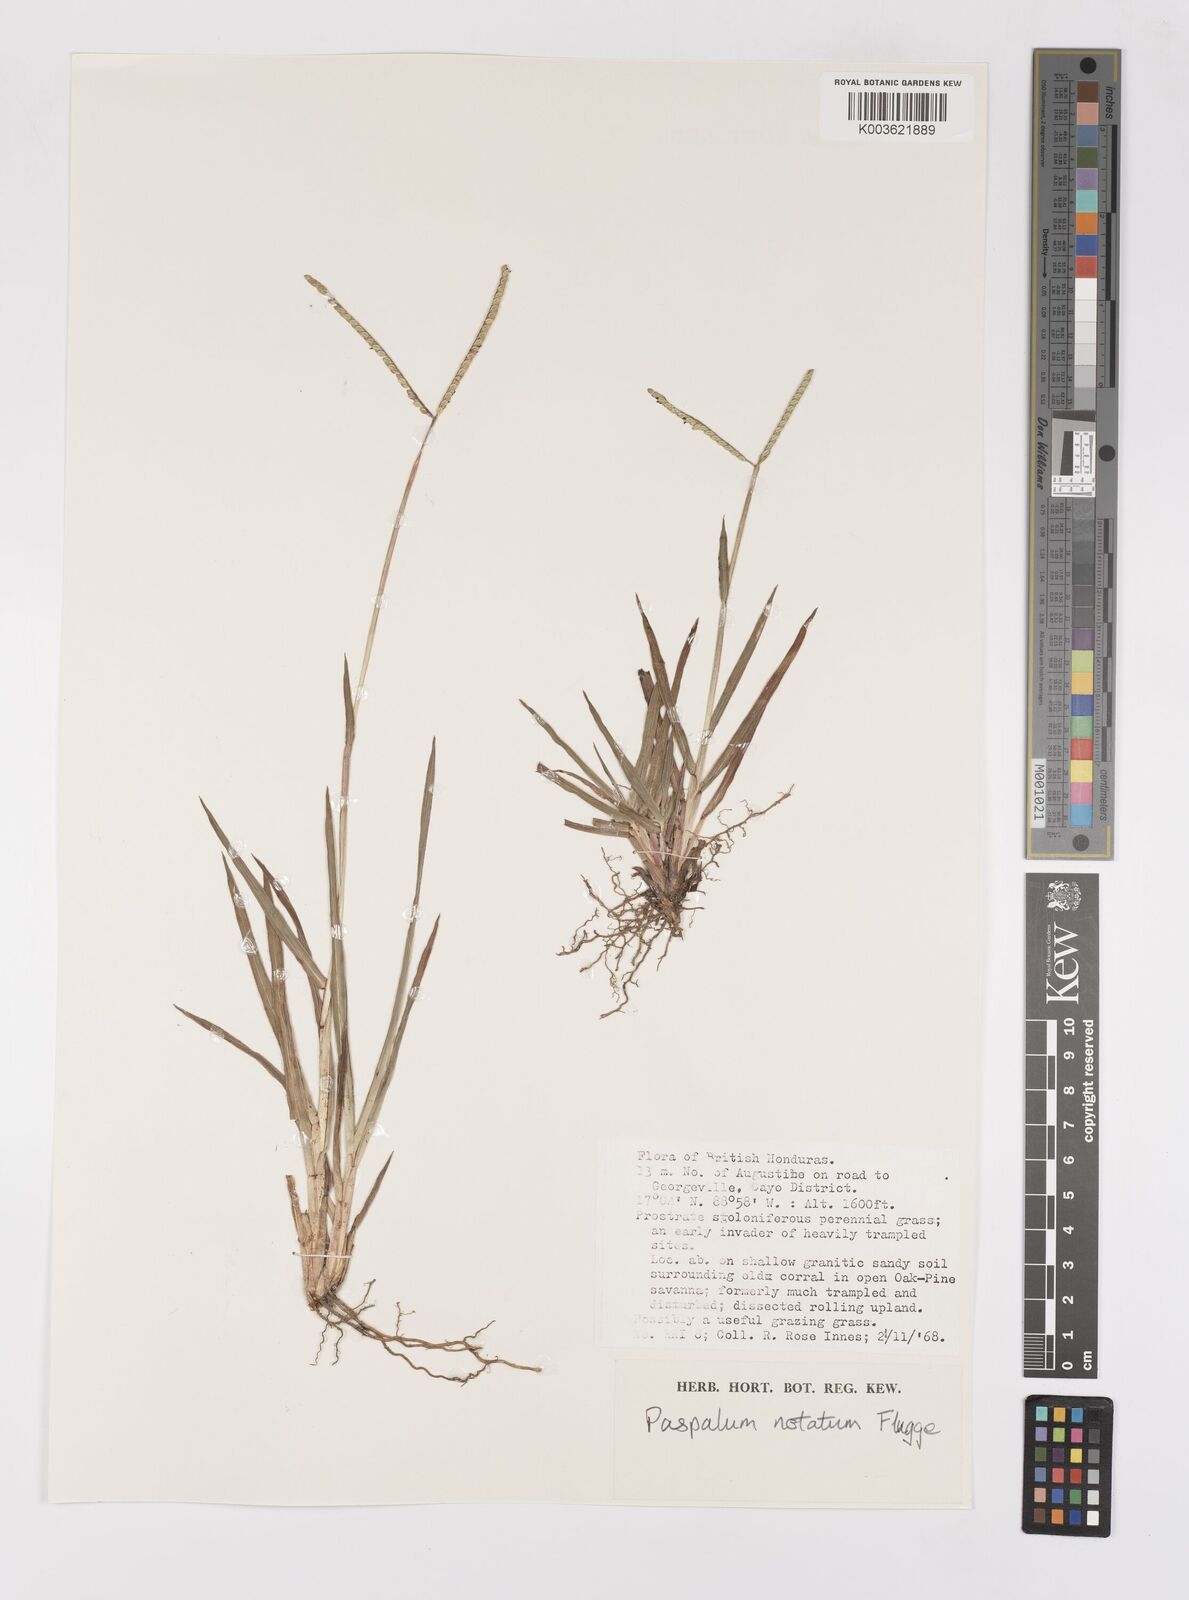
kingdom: Plantae
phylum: Tracheophyta
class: Liliopsida
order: Poales
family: Poaceae
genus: Paspalum
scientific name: Paspalum minus
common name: Matted paspalum
